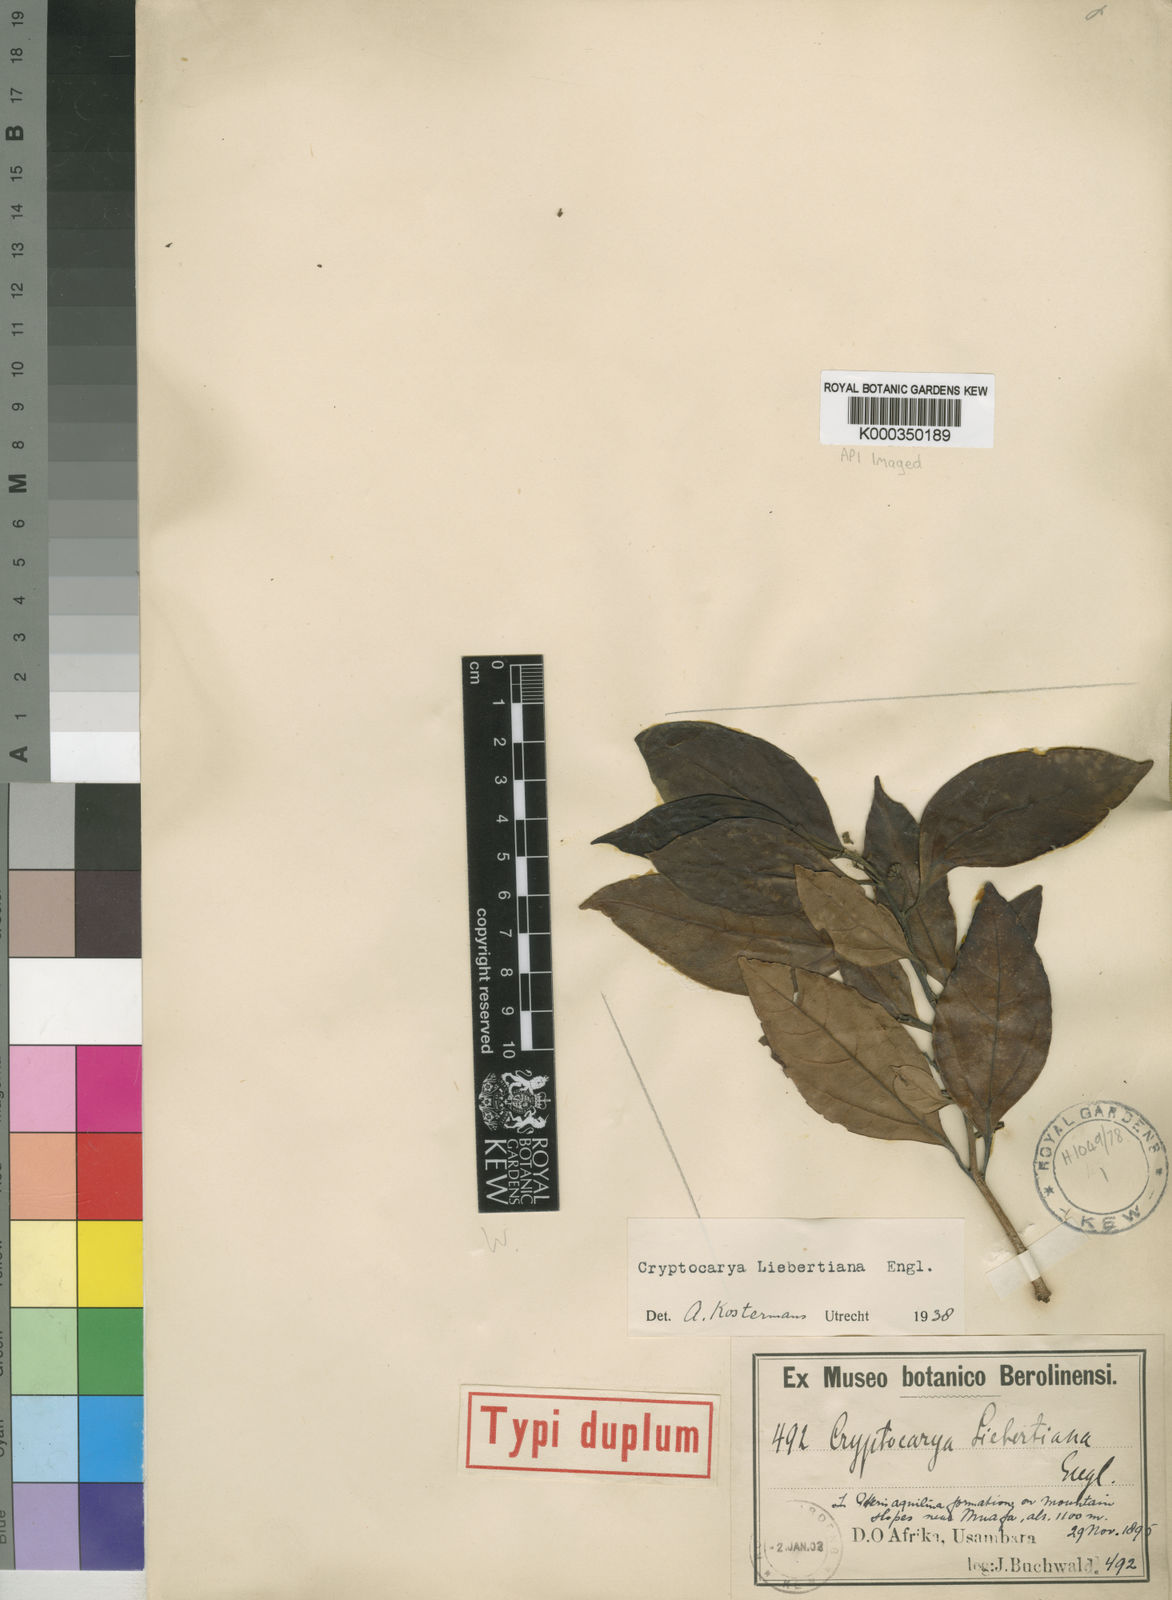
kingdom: Plantae
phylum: Tracheophyta
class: Magnoliopsida
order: Laurales
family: Lauraceae
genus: Cryptocarya
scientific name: Cryptocarya liebertiana
